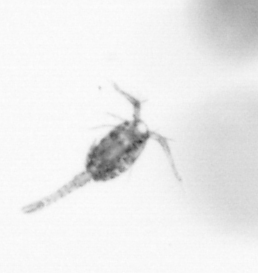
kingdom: Animalia
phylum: Arthropoda
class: Copepoda
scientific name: Copepoda
